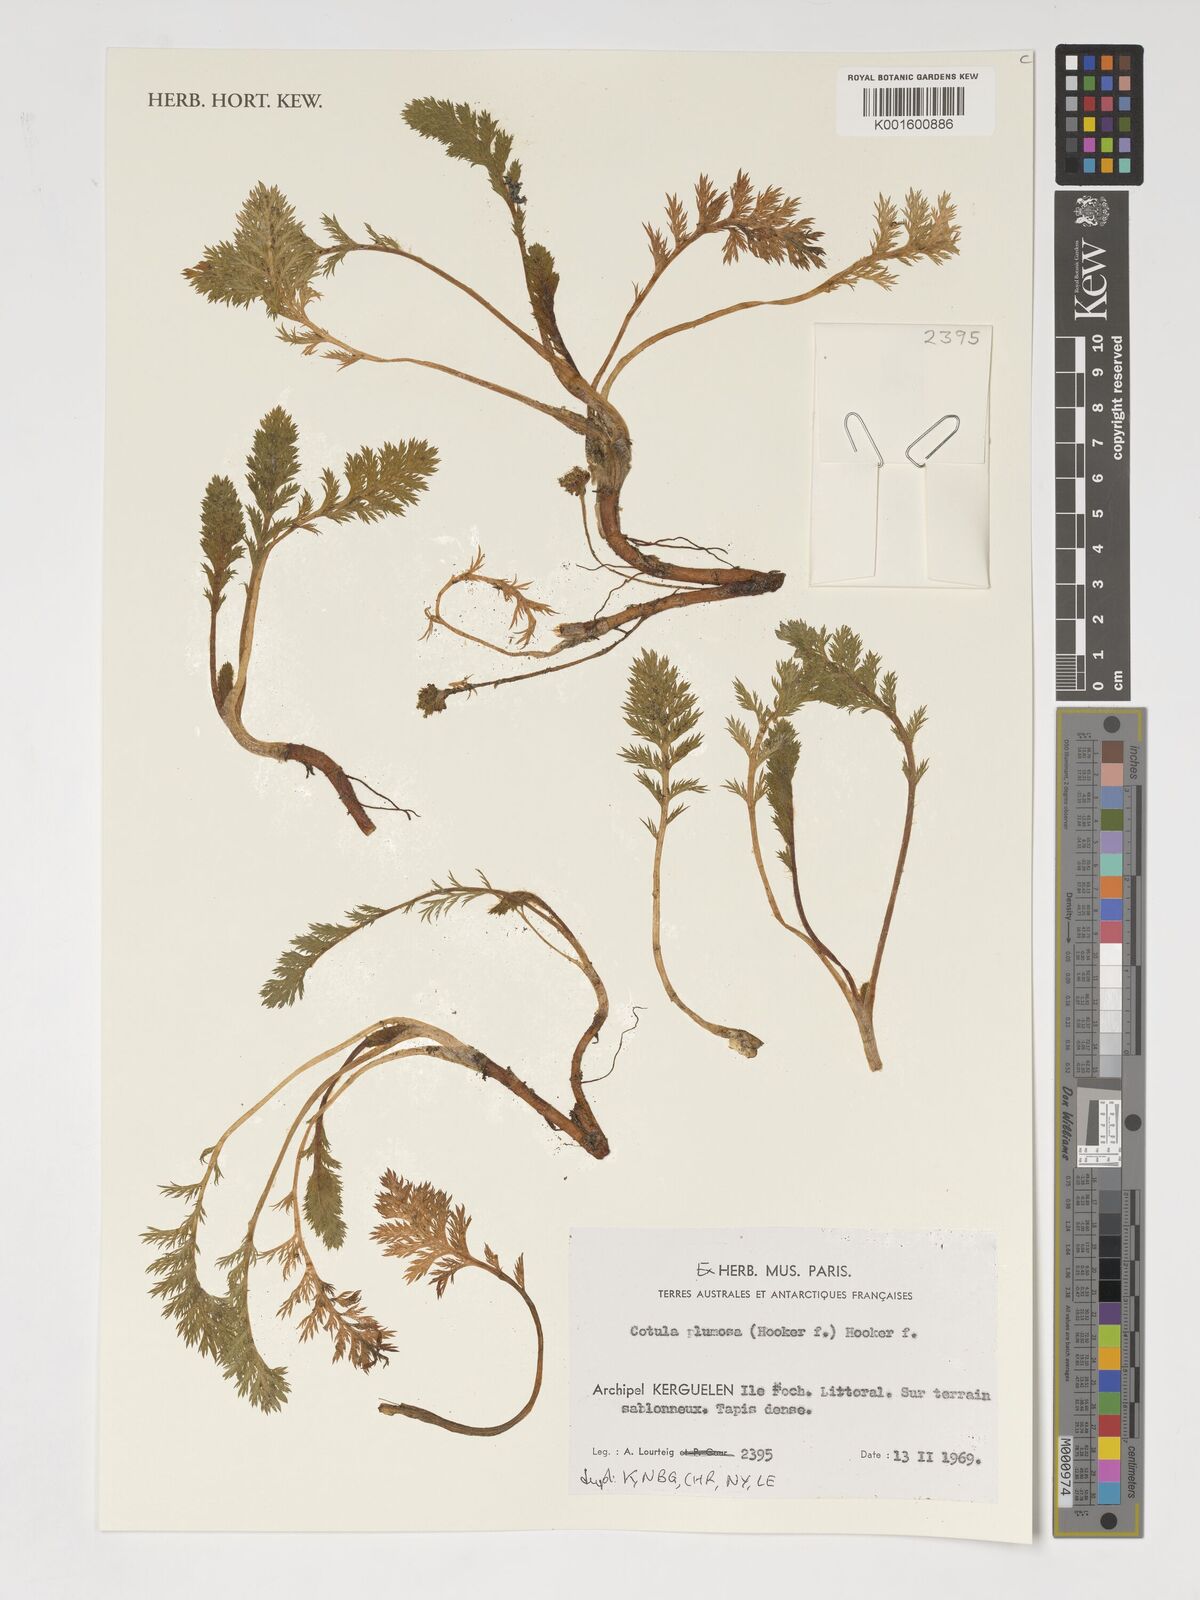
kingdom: Plantae
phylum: Tracheophyta
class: Magnoliopsida
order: Asterales
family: Asteraceae
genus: Leptinella
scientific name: Leptinella plumosa
